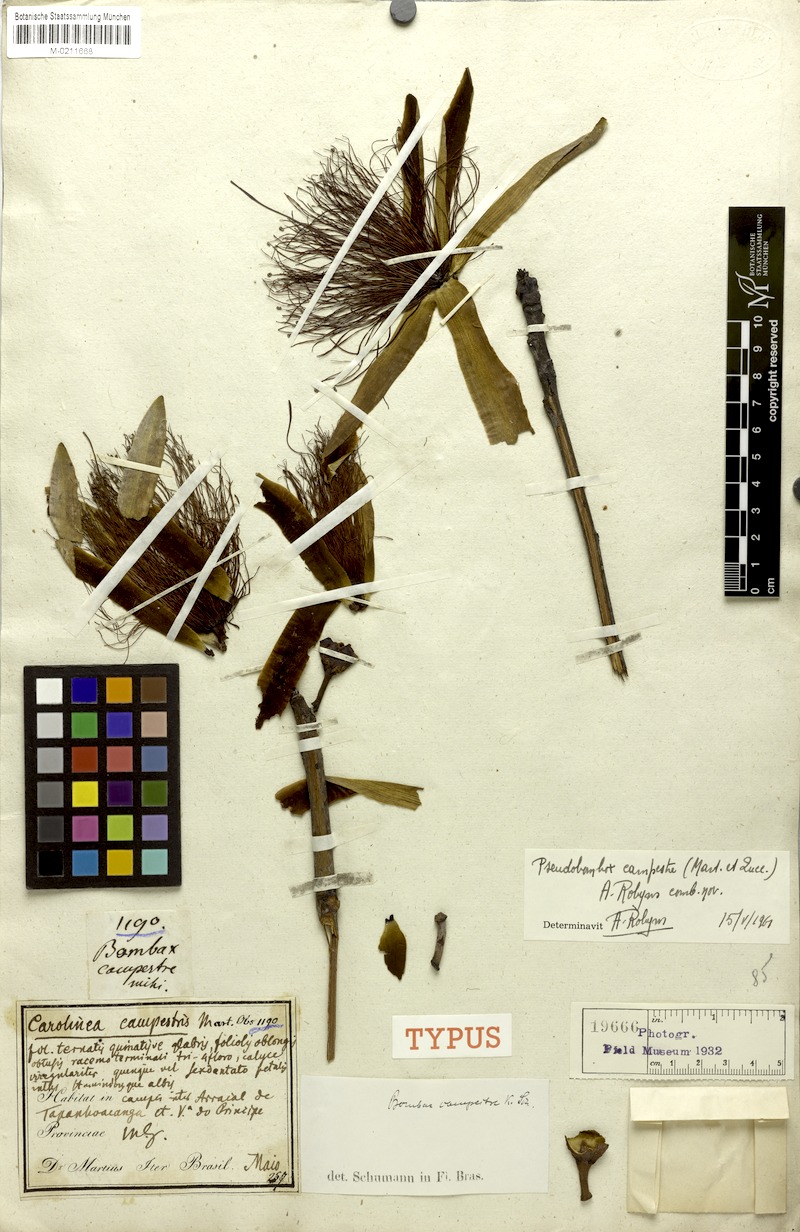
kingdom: Plantae
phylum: Tracheophyta
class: Magnoliopsida
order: Malvales
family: Malvaceae
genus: Pseudobombax
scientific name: Pseudobombax campestre
